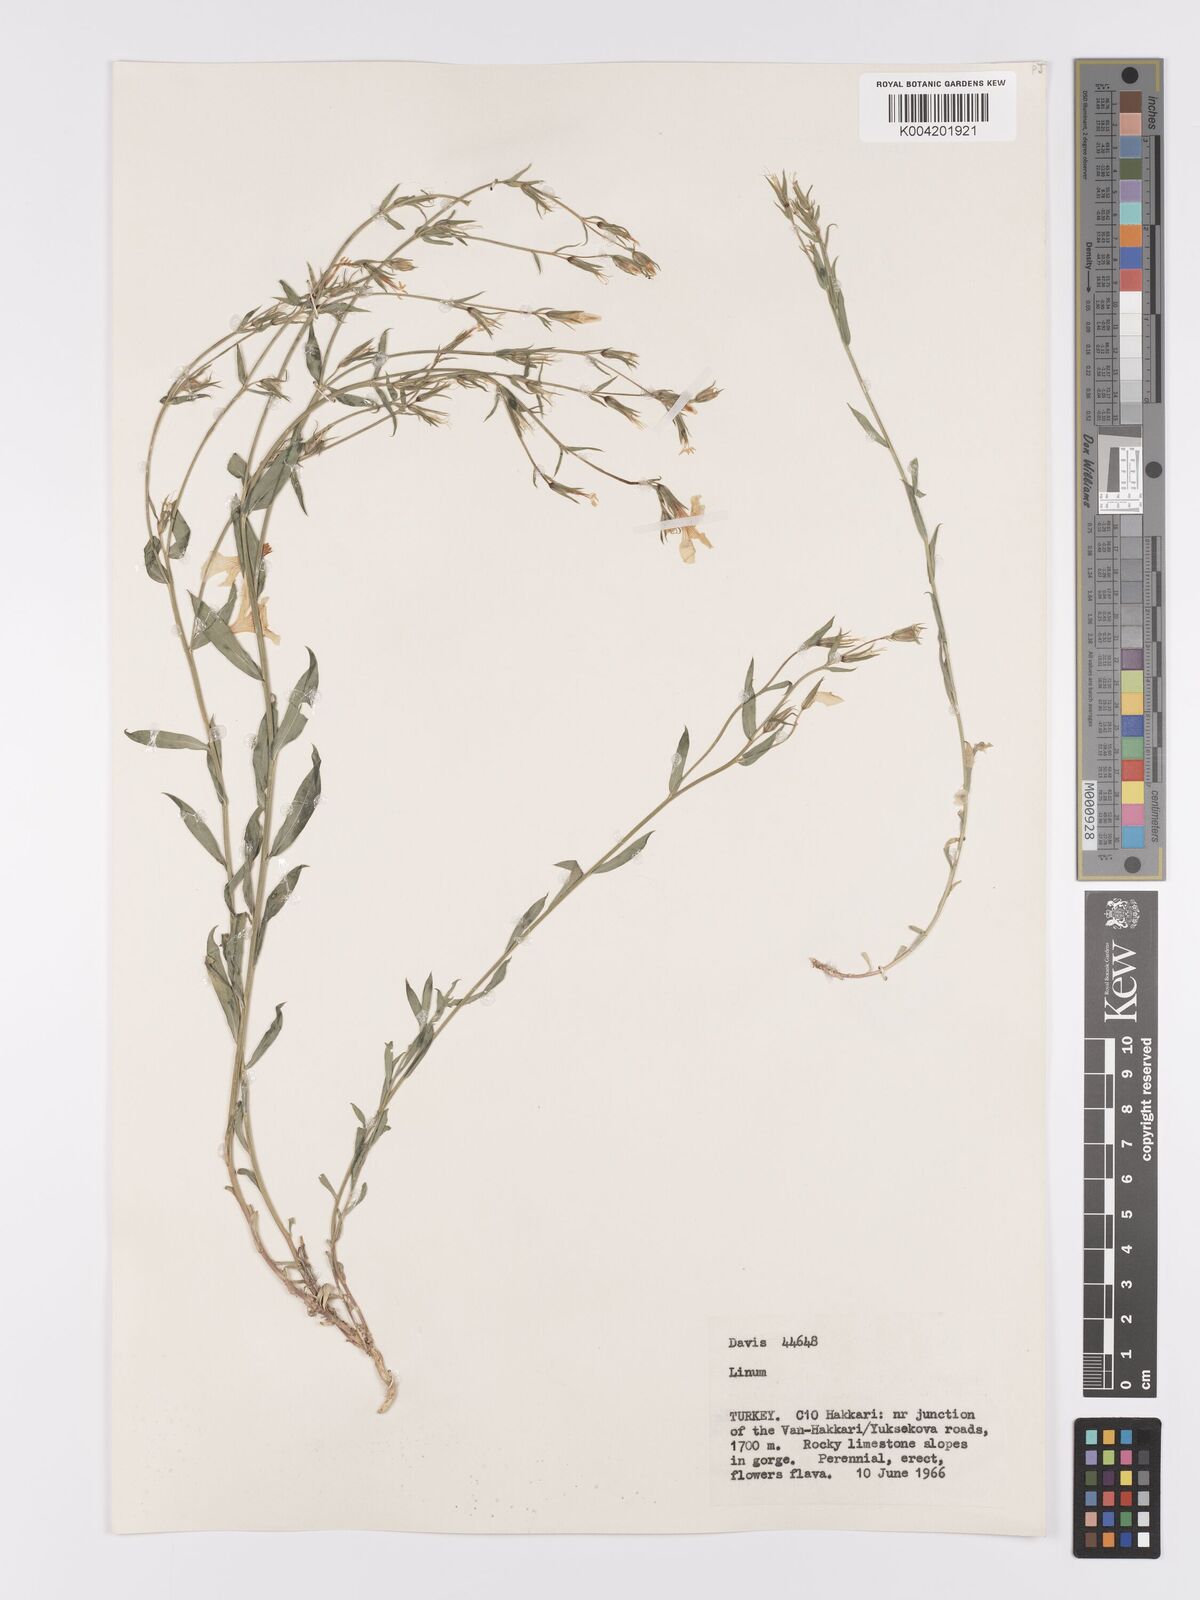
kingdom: Plantae
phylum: Tracheophyta
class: Magnoliopsida
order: Malpighiales
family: Linaceae
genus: Linum
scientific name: Linum
